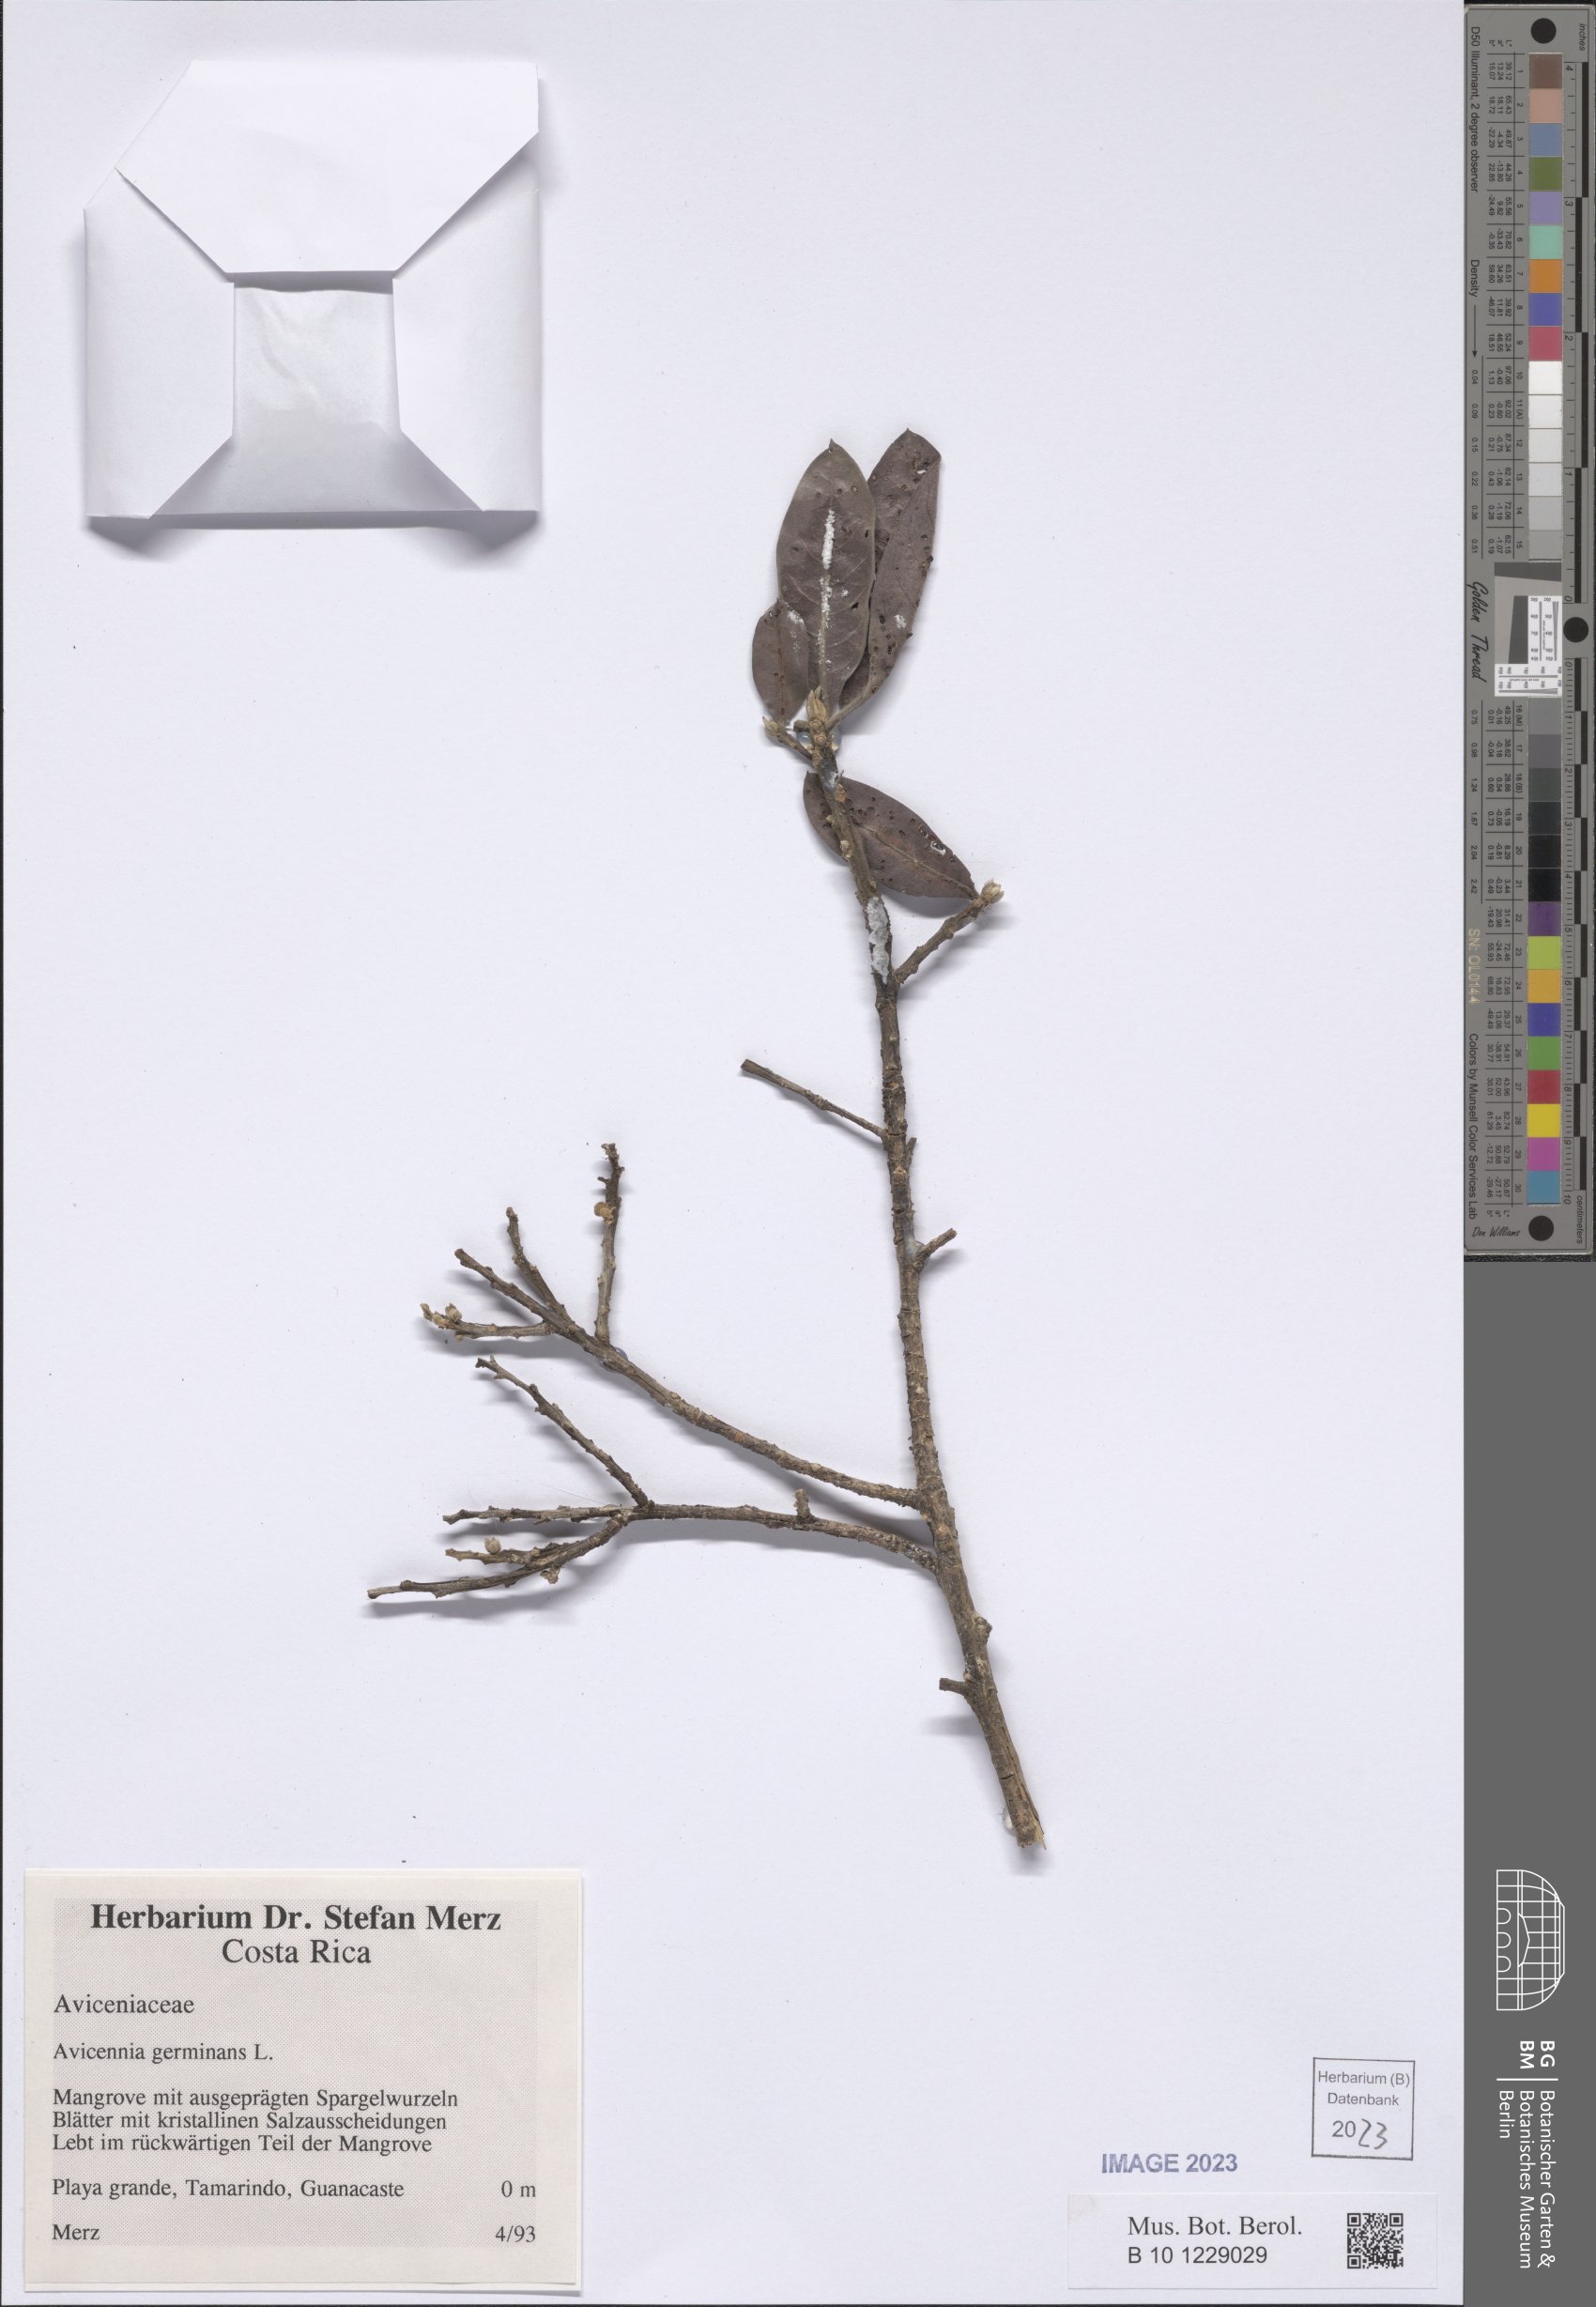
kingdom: Plantae
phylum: Tracheophyta
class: Magnoliopsida
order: Lamiales
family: Acanthaceae
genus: Avicennia
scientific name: Avicennia germinans
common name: Black mangrove
